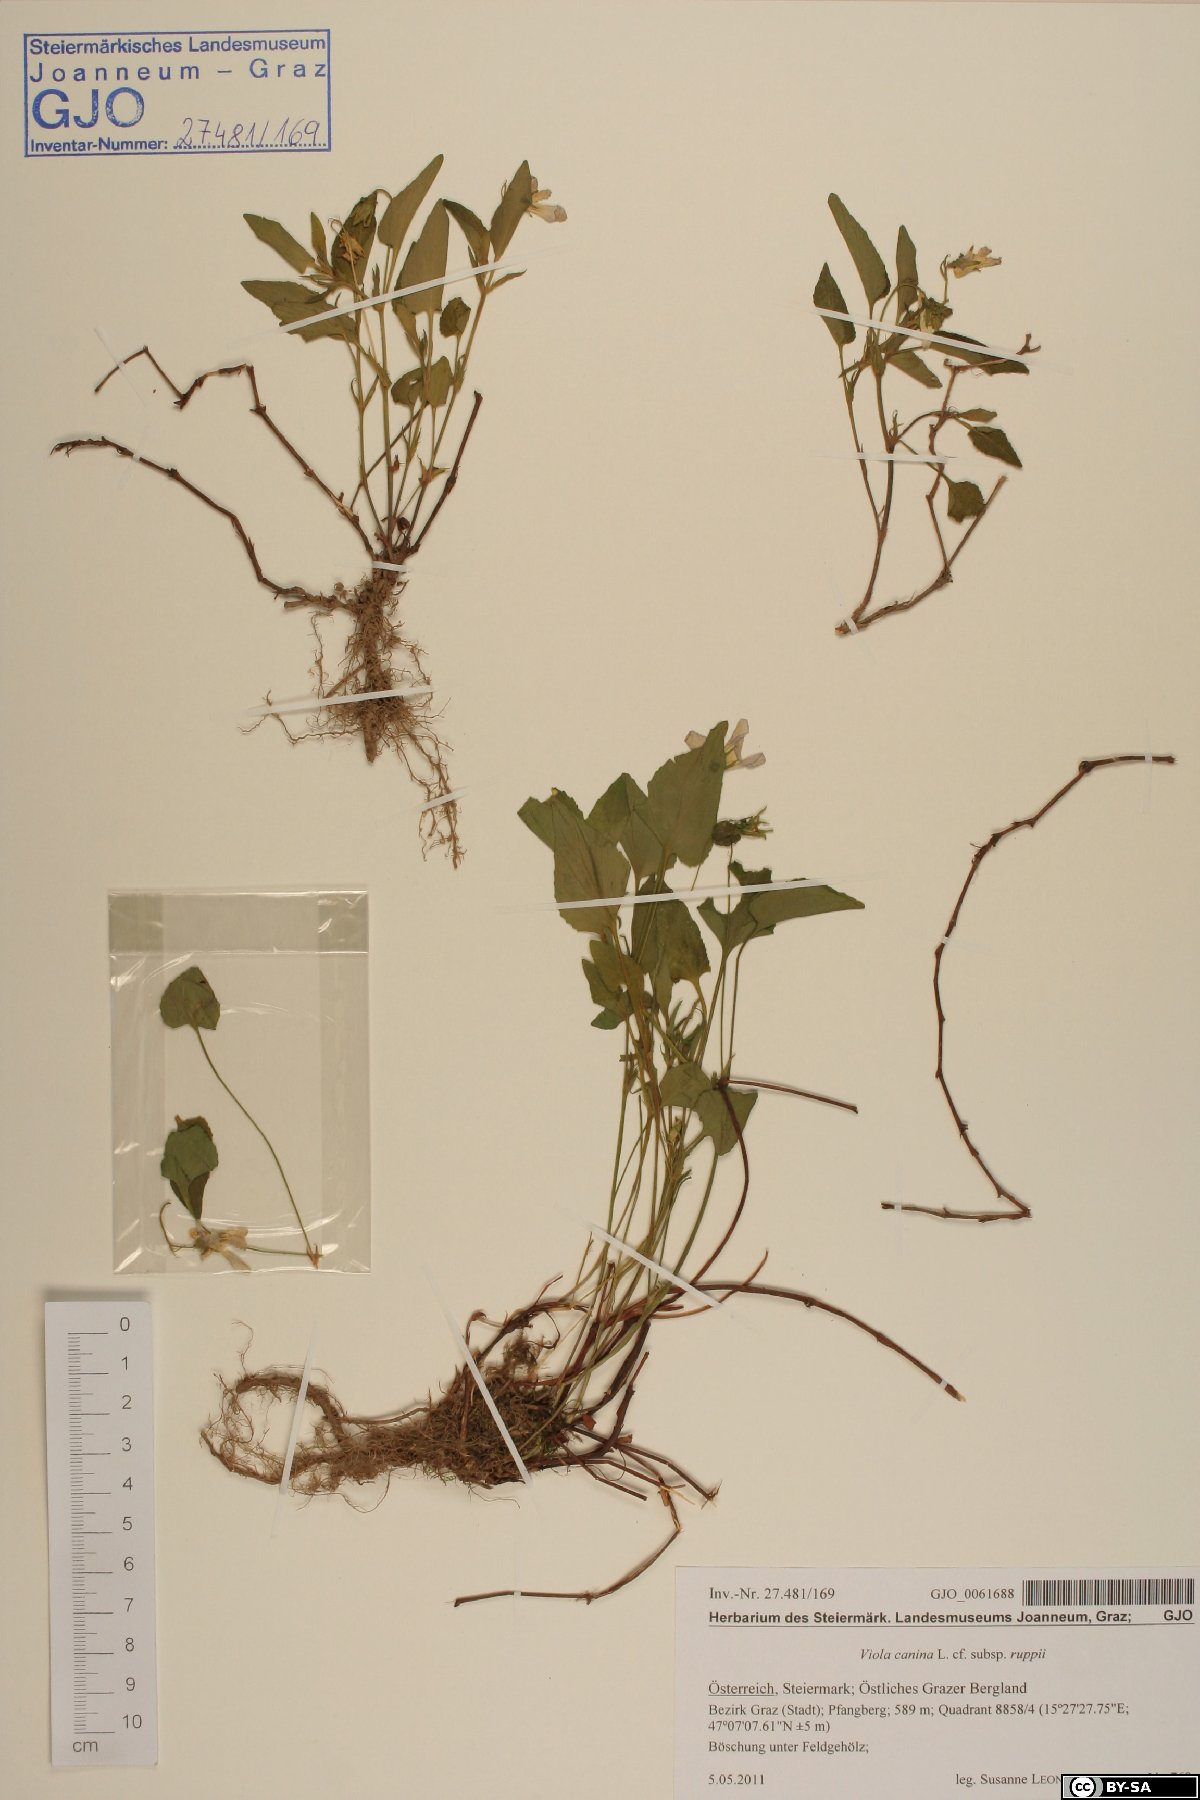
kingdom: Plantae
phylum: Tracheophyta
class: Magnoliopsida
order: Malpighiales
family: Violaceae
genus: Viola
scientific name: Viola ruppii
